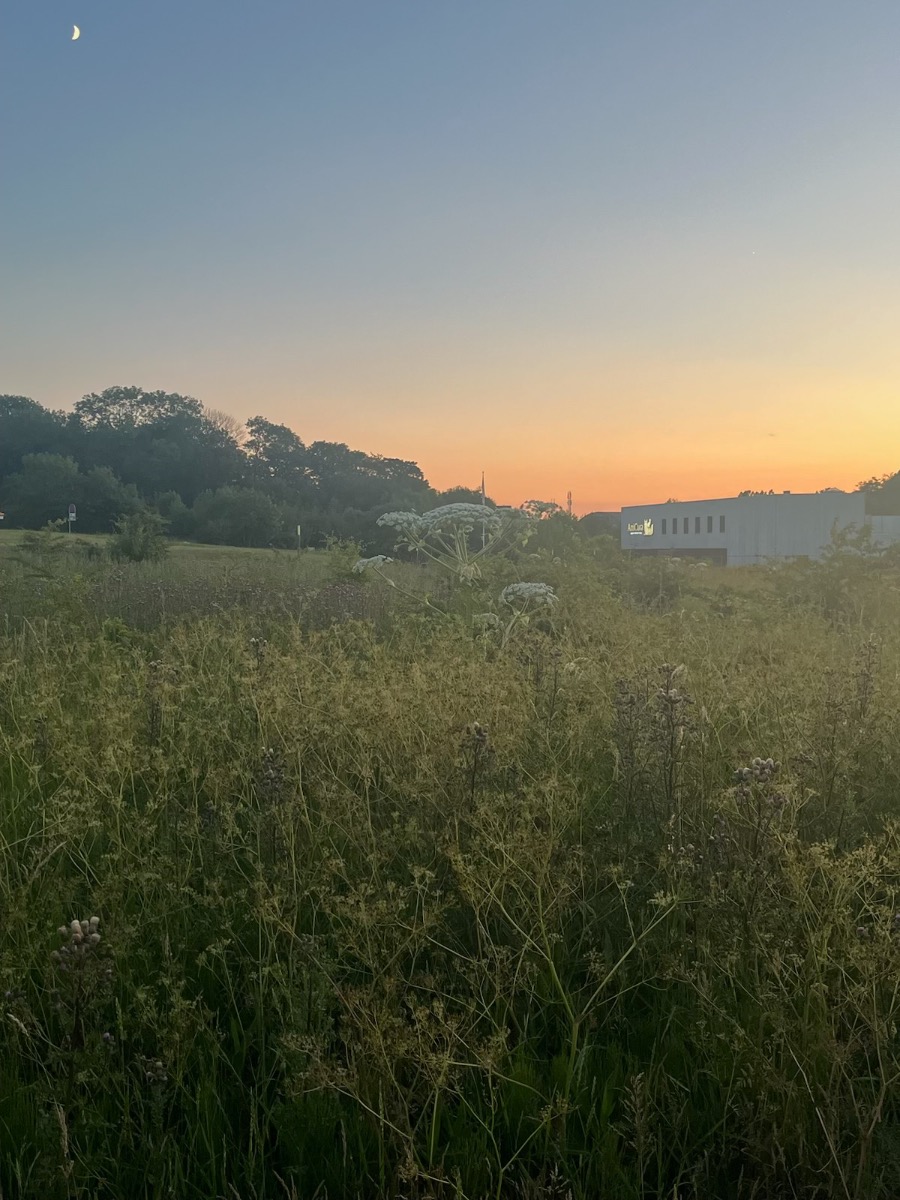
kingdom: Plantae
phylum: Tracheophyta
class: Magnoliopsida
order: Apiales
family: Apiaceae
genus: Heracleum
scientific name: Heracleum mantegazzianum
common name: Kæmpe-bjørneklo
